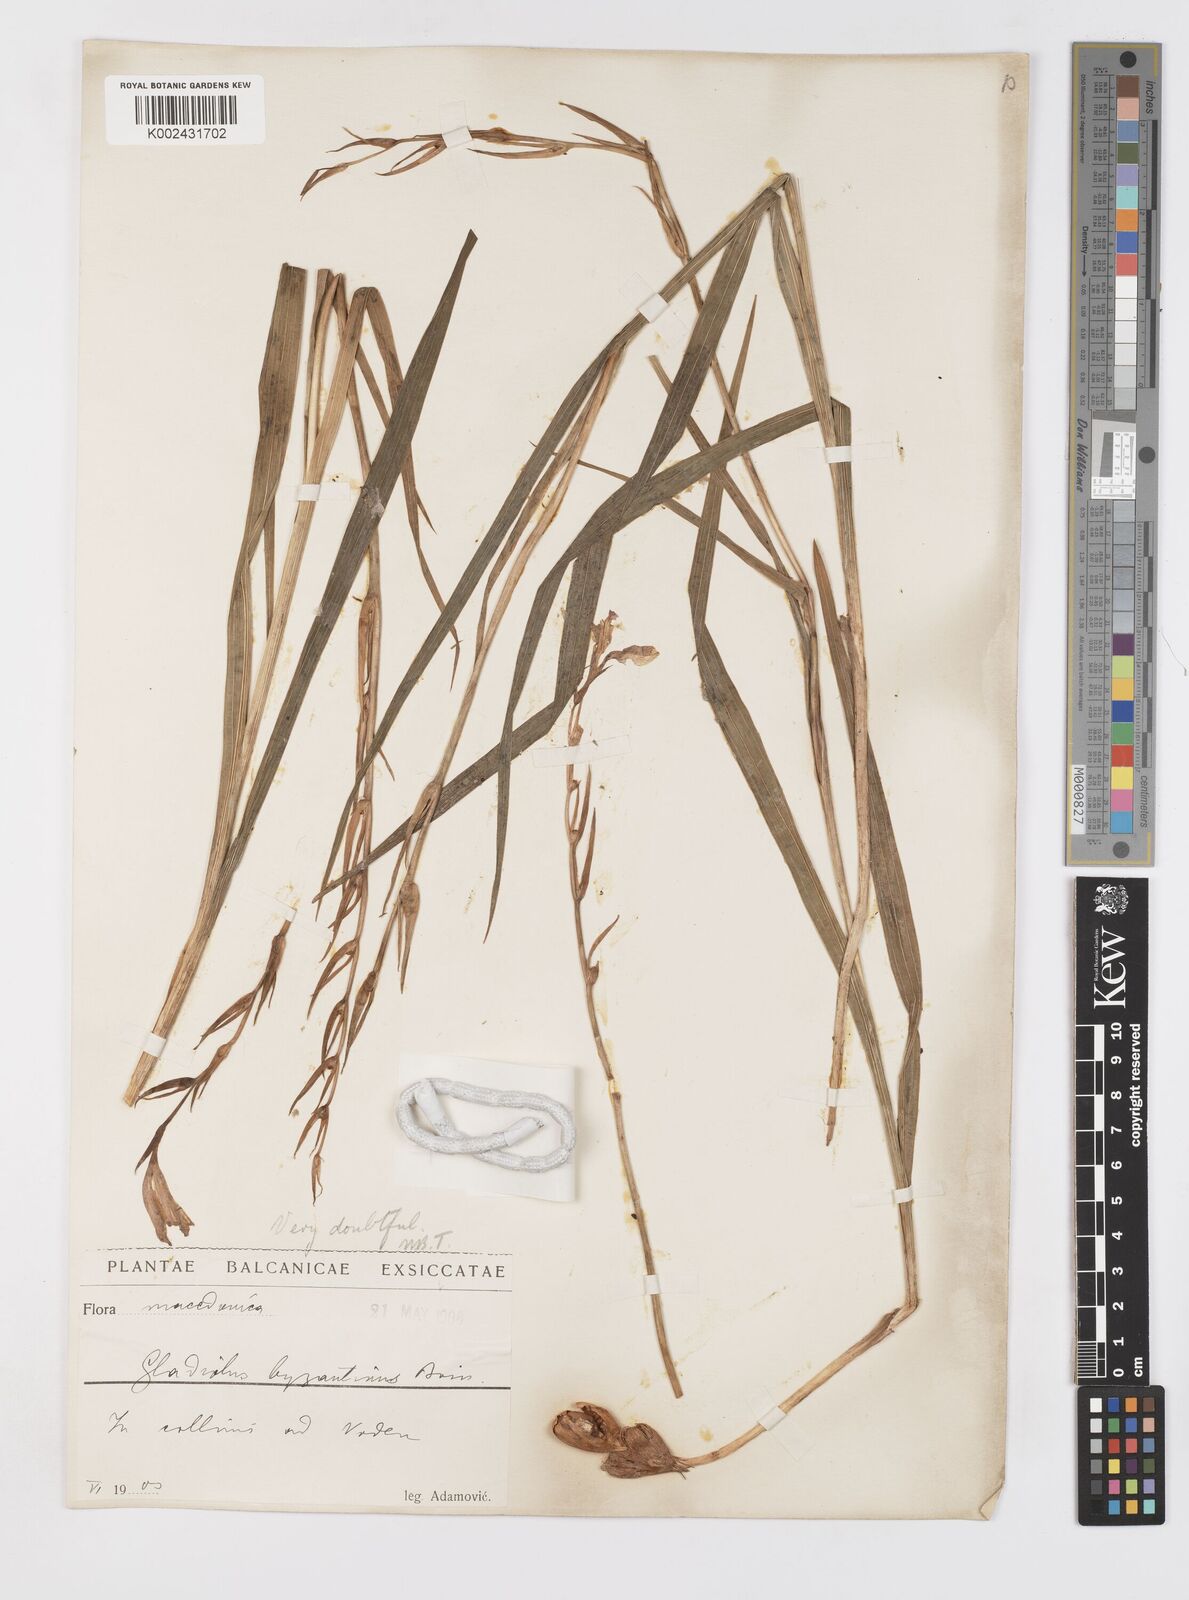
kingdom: Plantae
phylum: Tracheophyta
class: Liliopsida
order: Asparagales
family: Iridaceae
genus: Gladiolus
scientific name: Gladiolus illyricus
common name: Wild gladiolus
